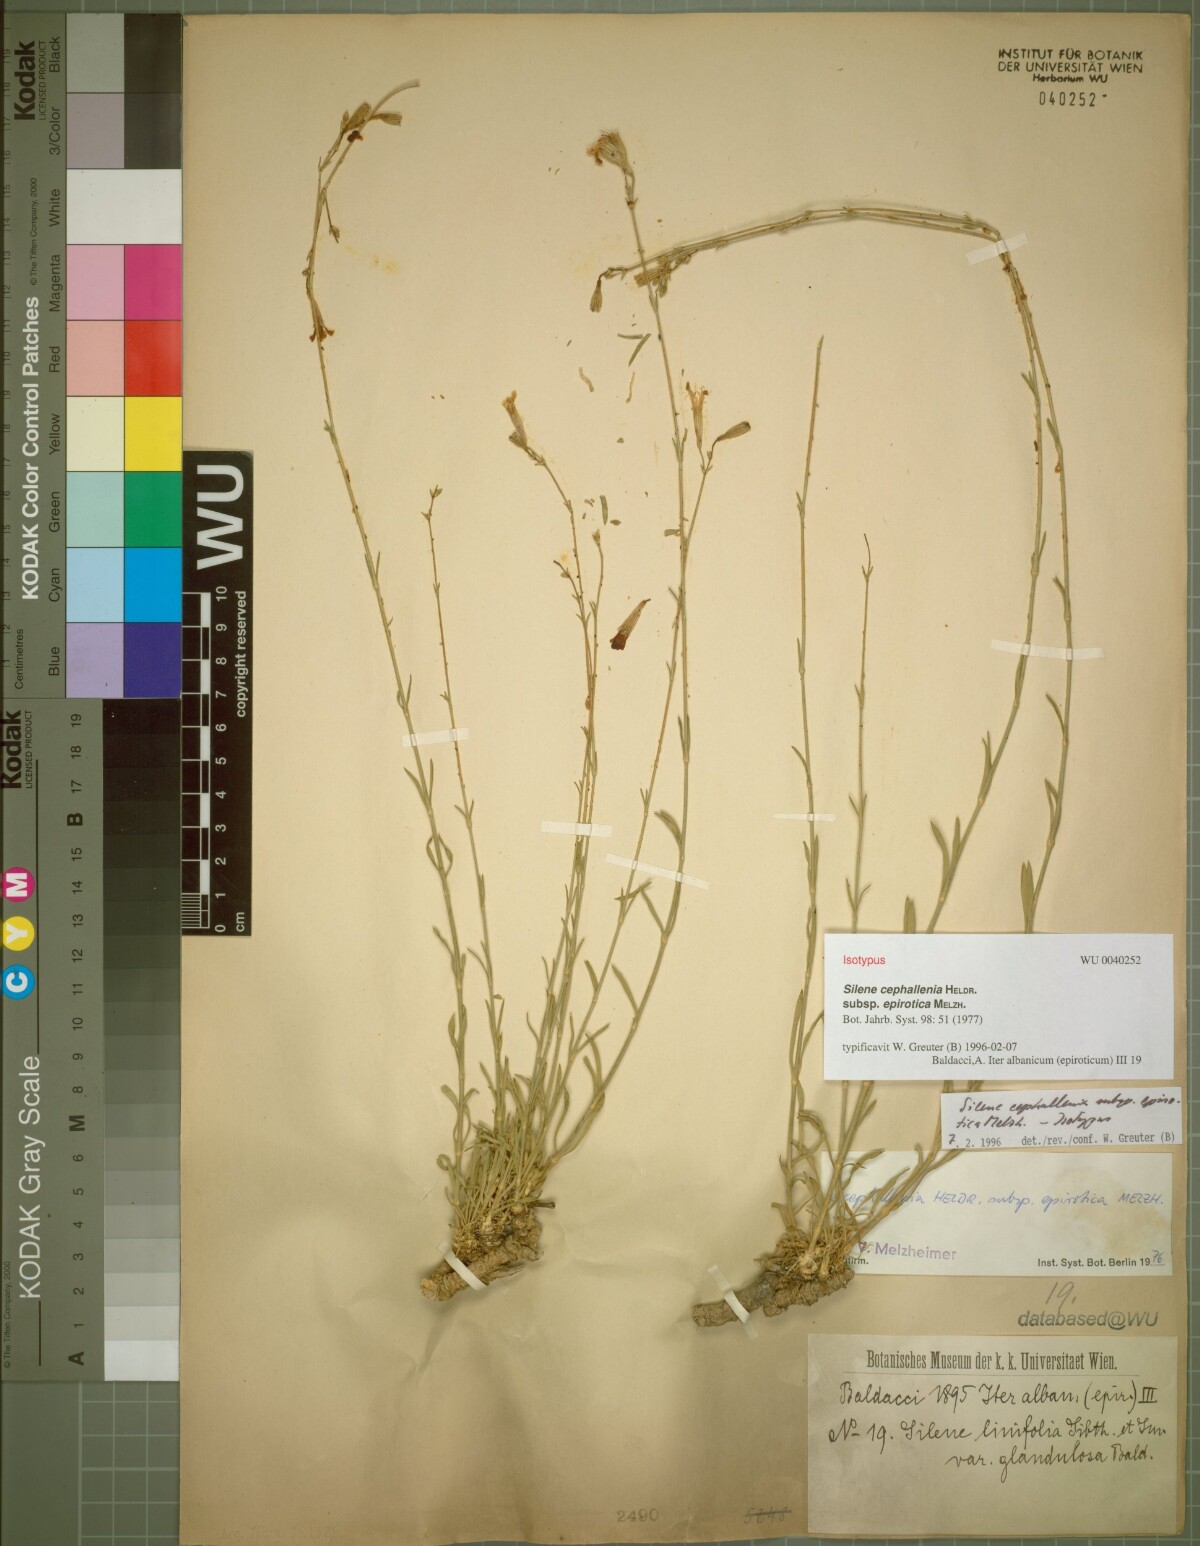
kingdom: Plantae
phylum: Tracheophyta
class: Magnoliopsida
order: Caryophyllales
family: Caryophyllaceae
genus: Silene
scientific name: Silene cephallenia
